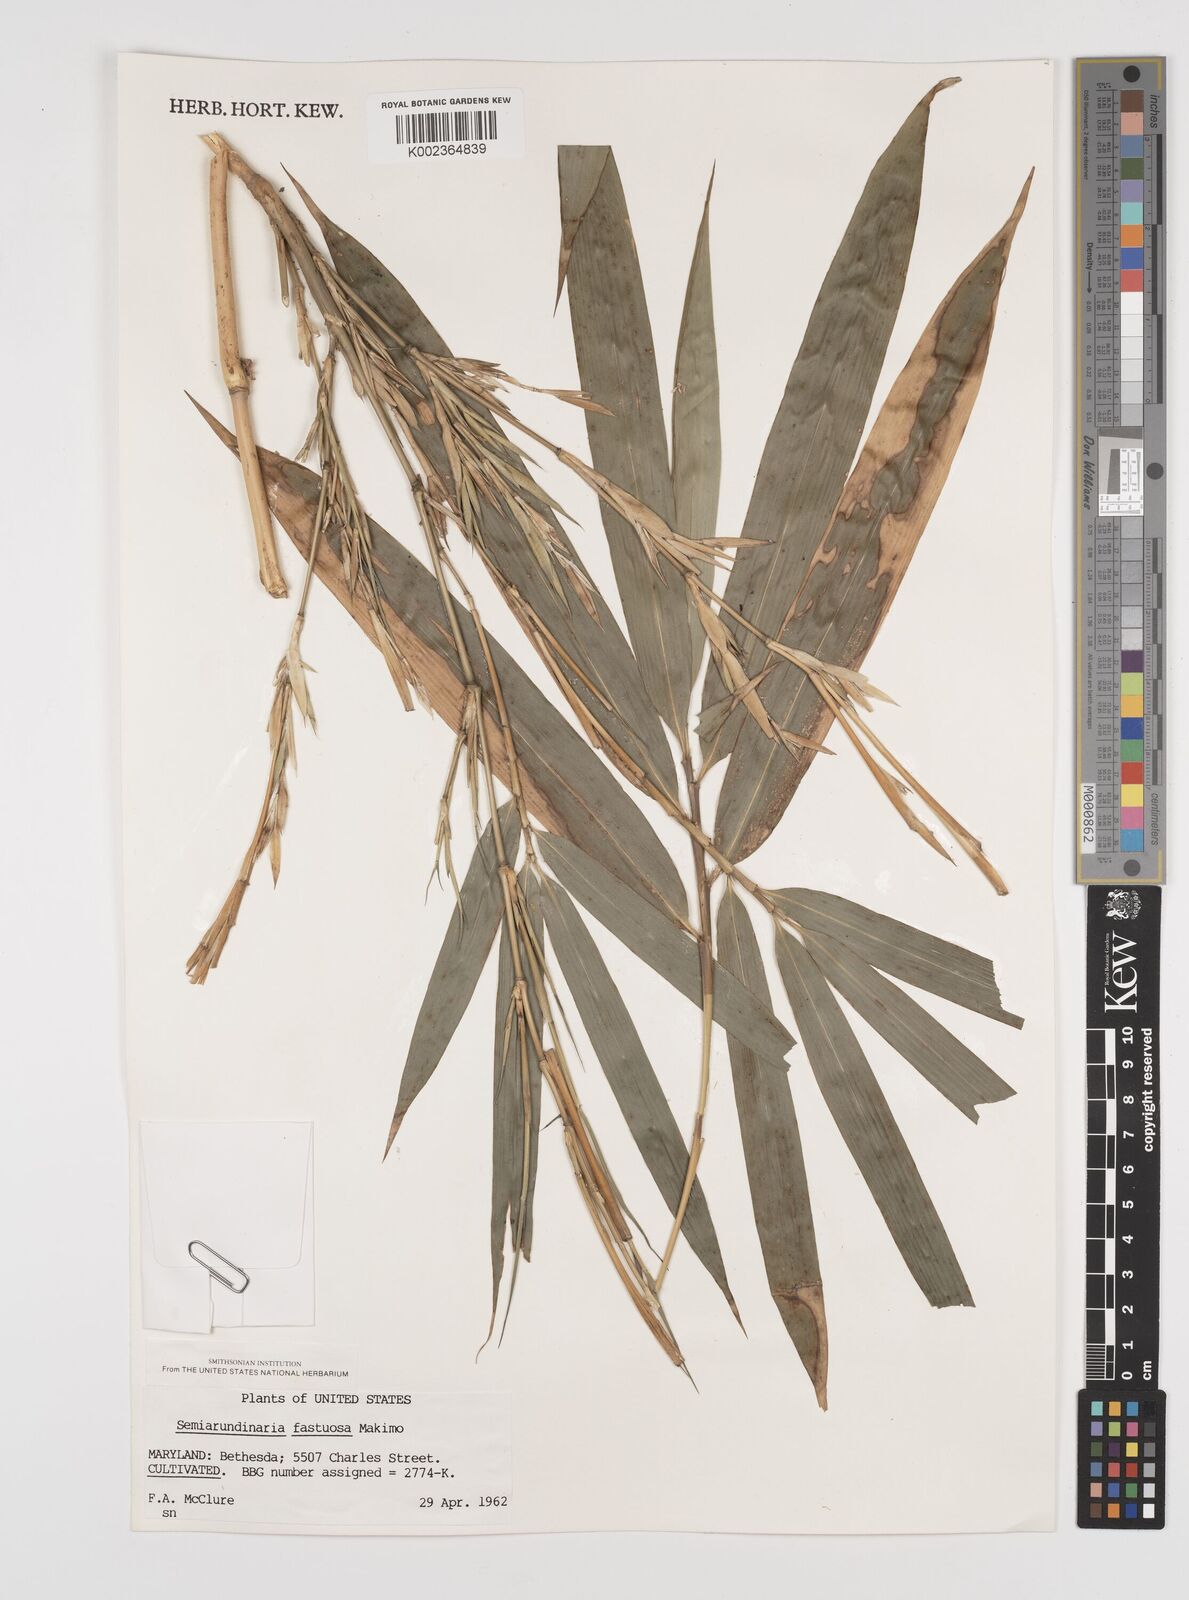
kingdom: Plantae
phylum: Tracheophyta
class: Liliopsida
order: Poales
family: Poaceae
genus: Semiarundinaria
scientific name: Semiarundinaria fastuosa
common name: Narihira bamboo
